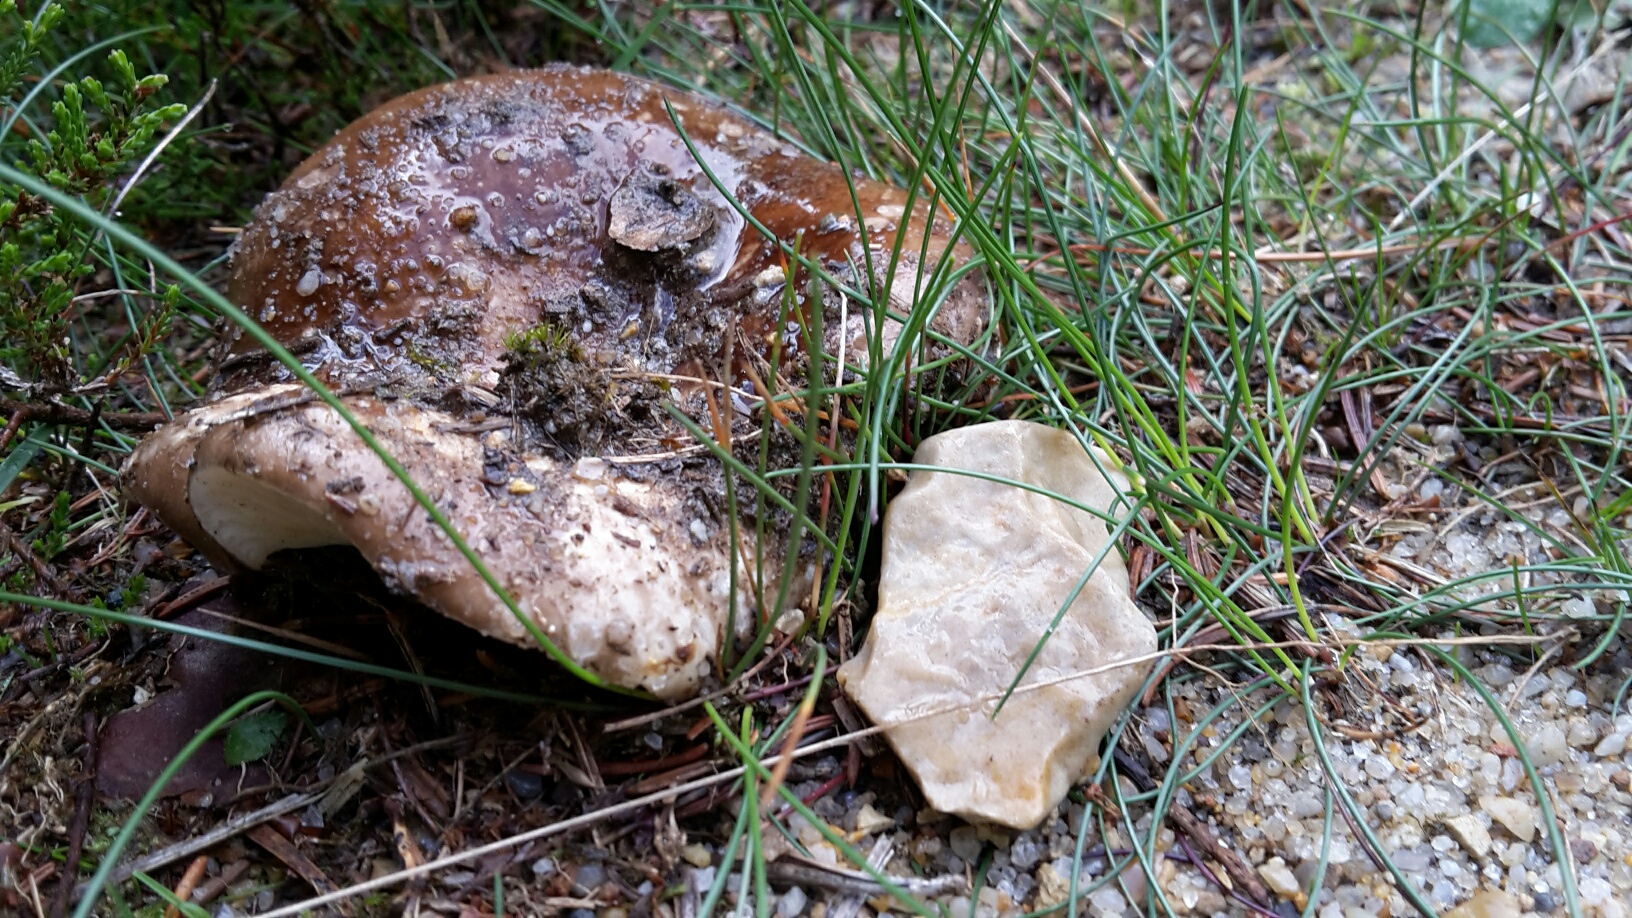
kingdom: Fungi
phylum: Basidiomycota
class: Agaricomycetes
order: Russulales
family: Russulaceae
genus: Russula
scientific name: Russula adusta
